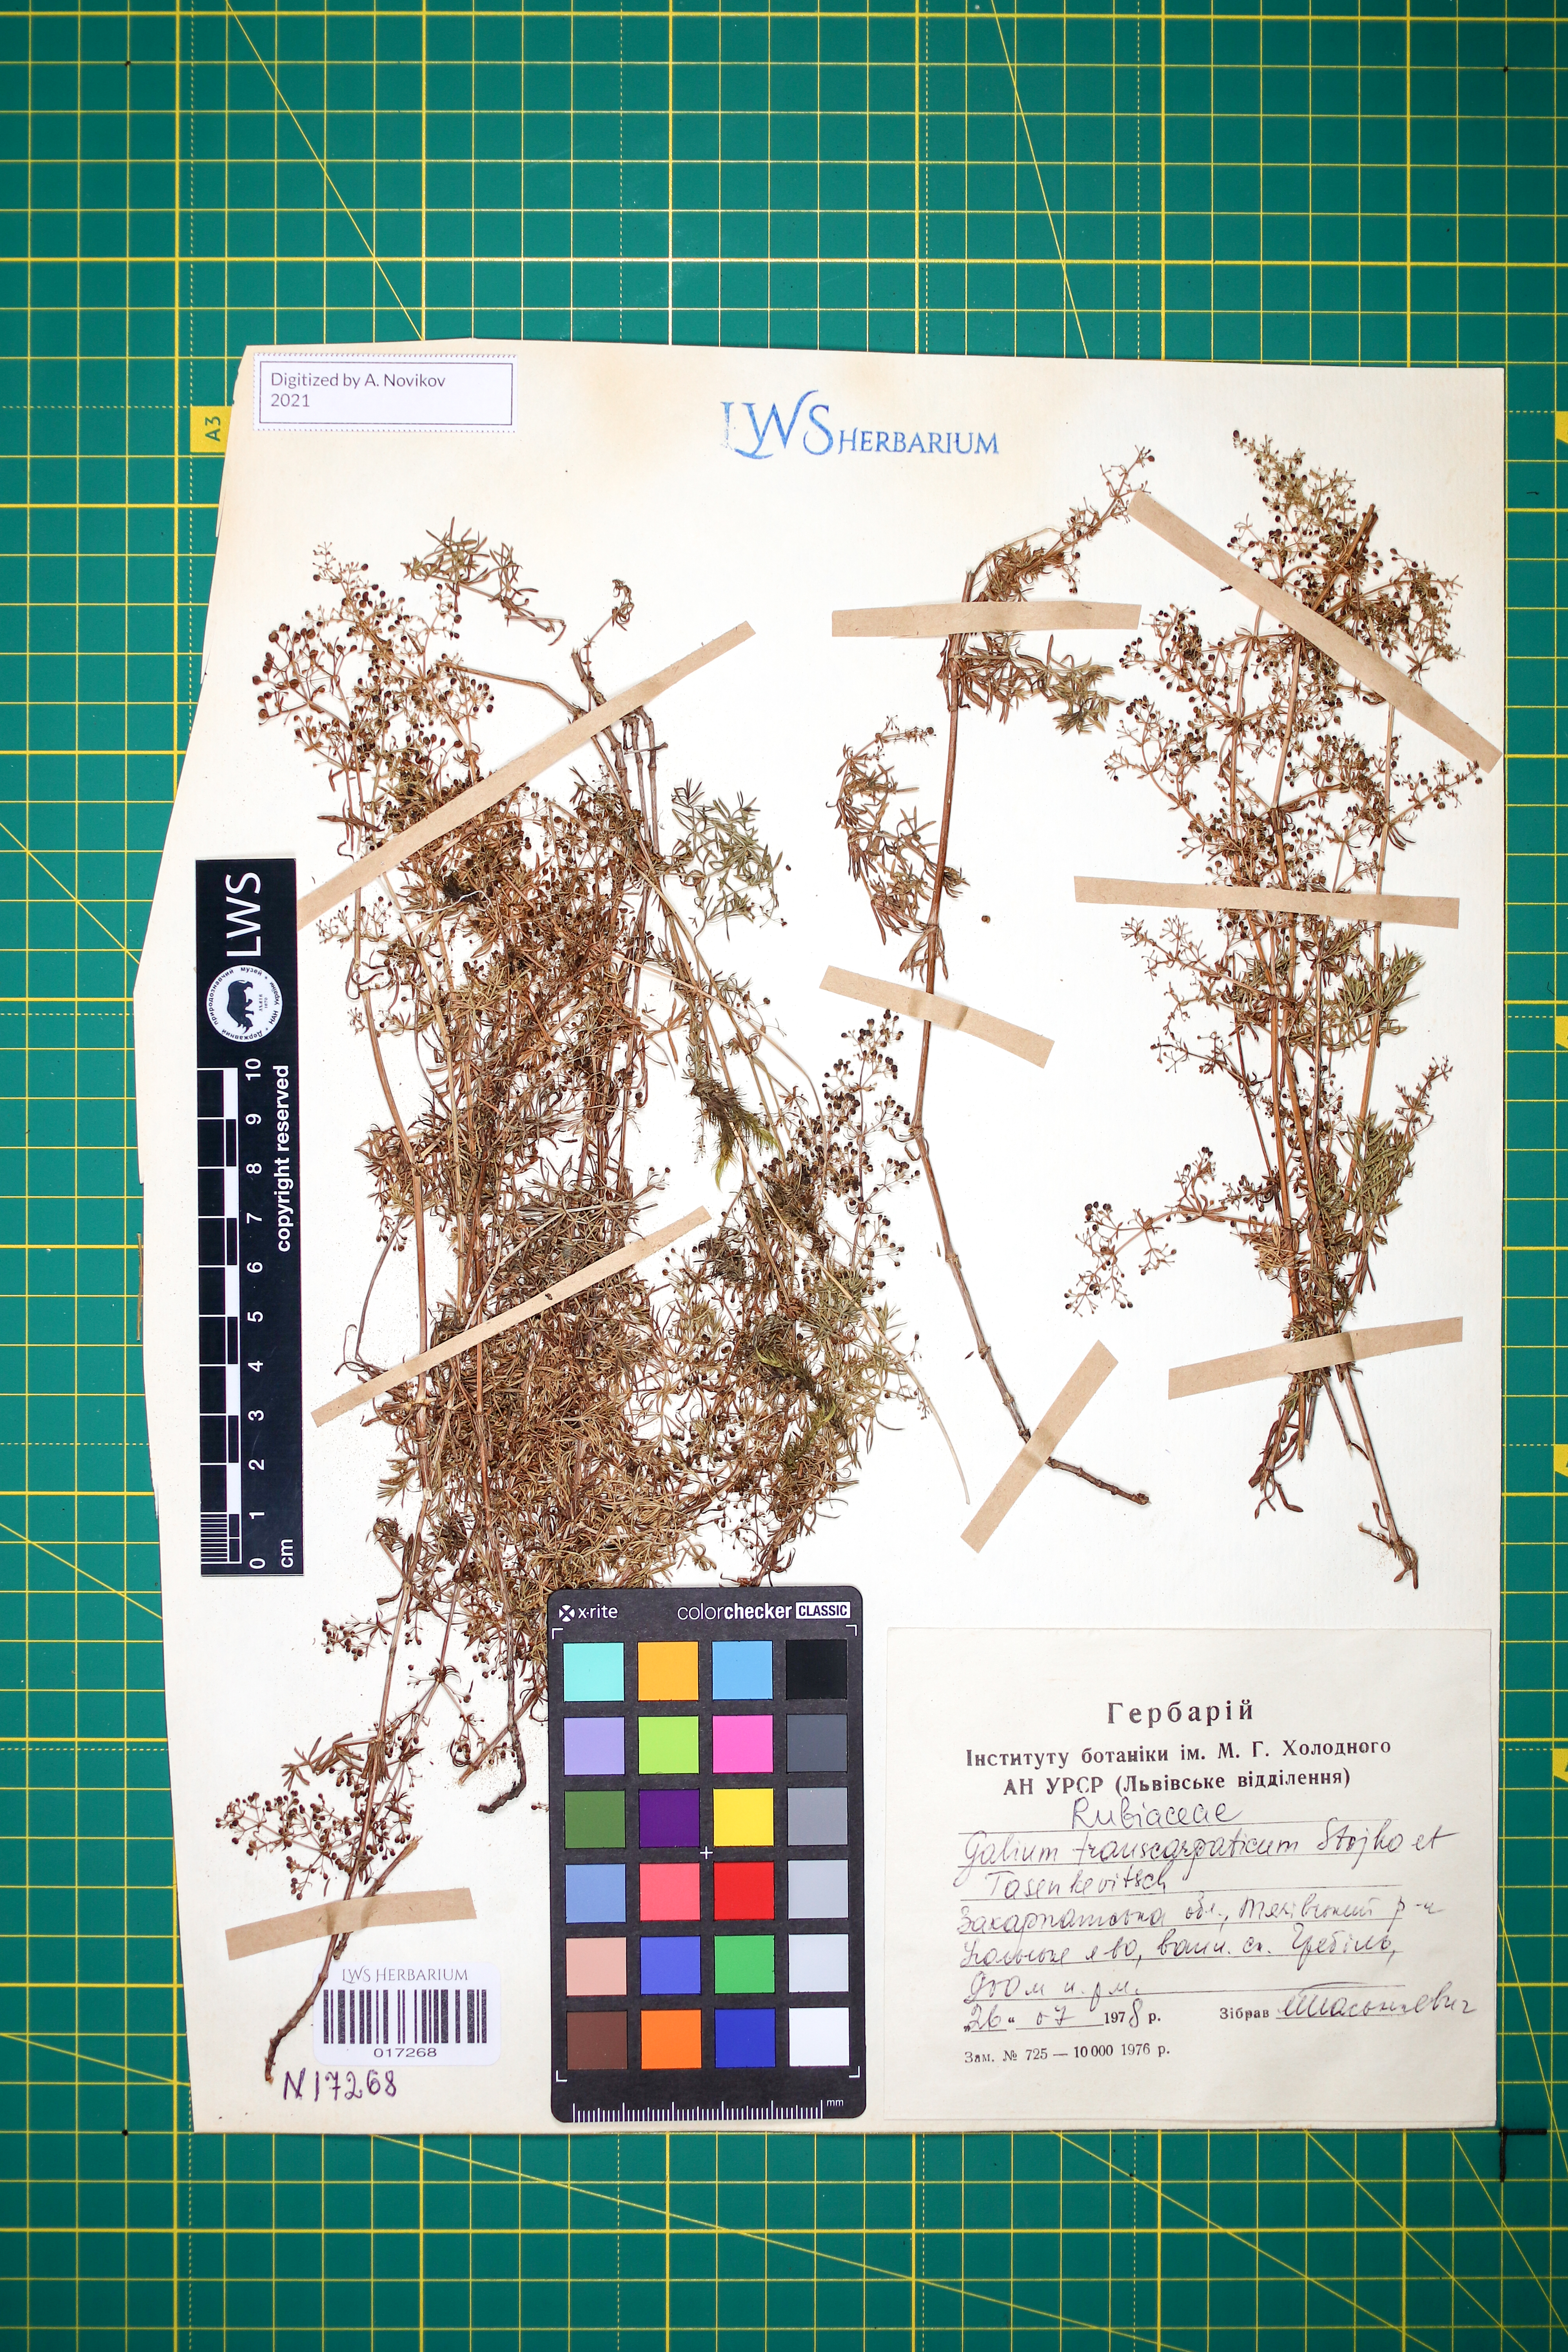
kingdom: Plantae
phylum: Tracheophyta
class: Magnoliopsida
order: Gentianales
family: Rubiaceae
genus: Galium
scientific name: Galium transcarpaticum
